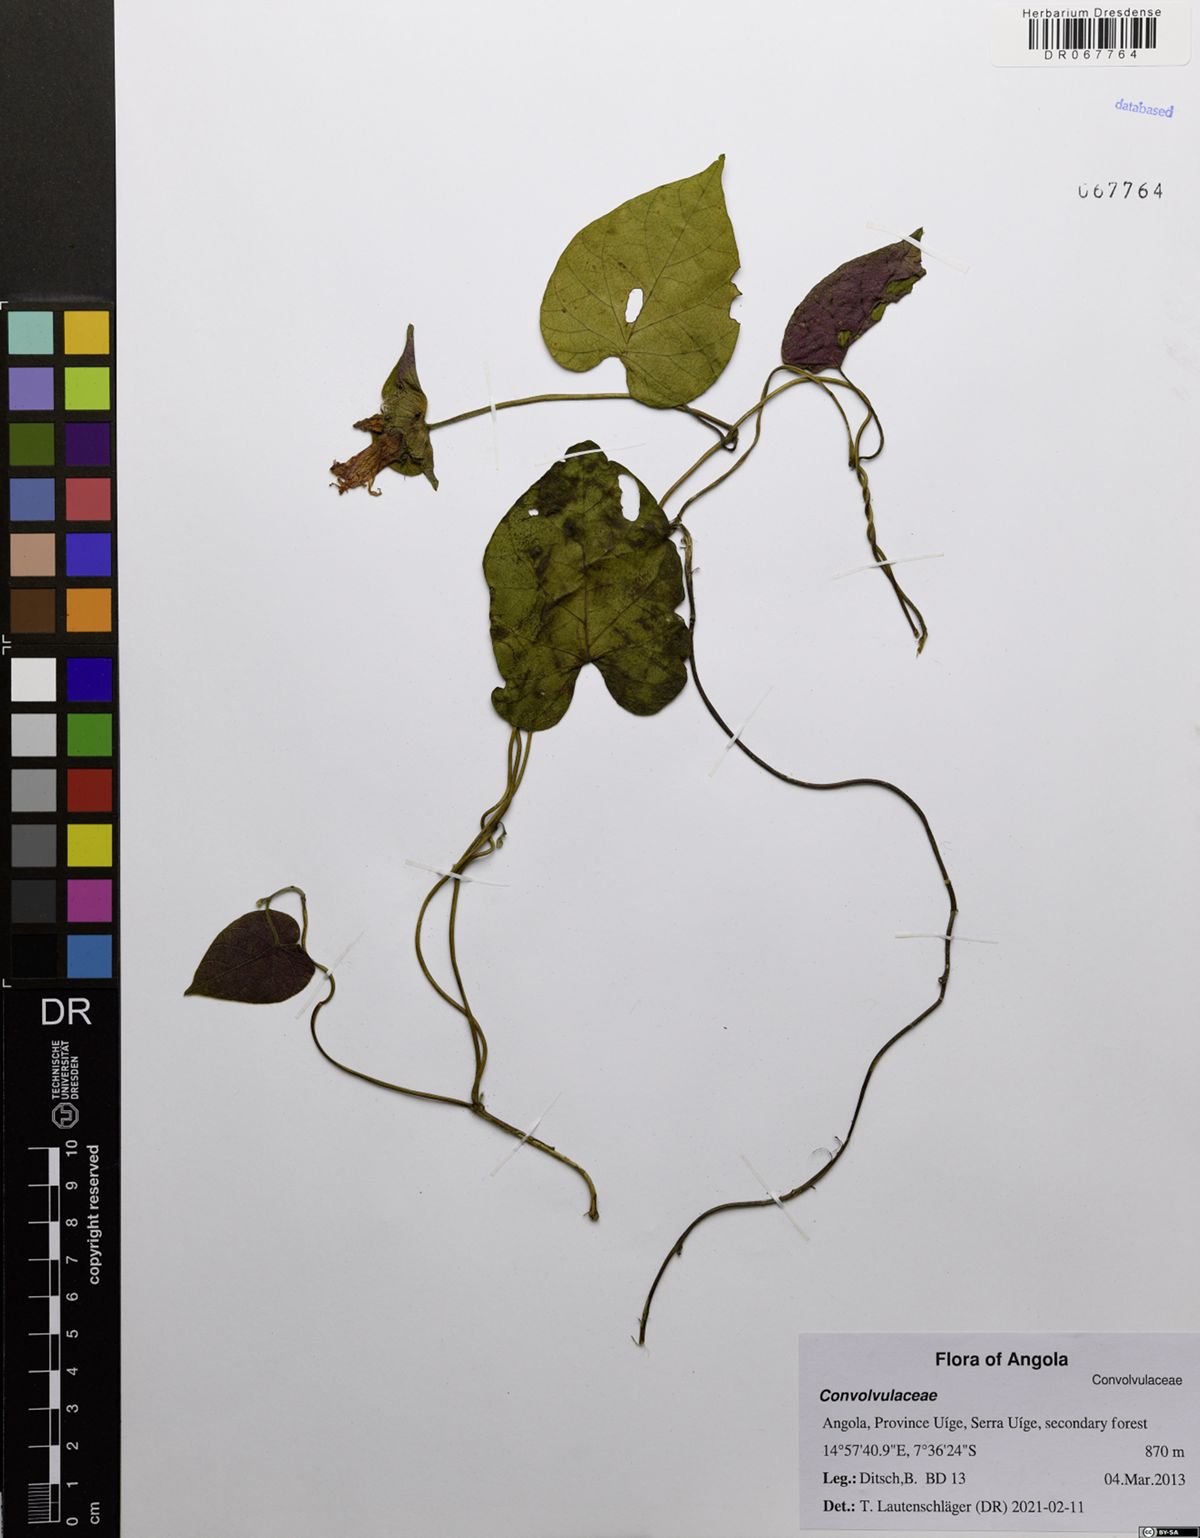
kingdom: Plantae
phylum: Tracheophyta
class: Magnoliopsida
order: Solanales
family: Convolvulaceae
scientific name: Convolvulaceae
